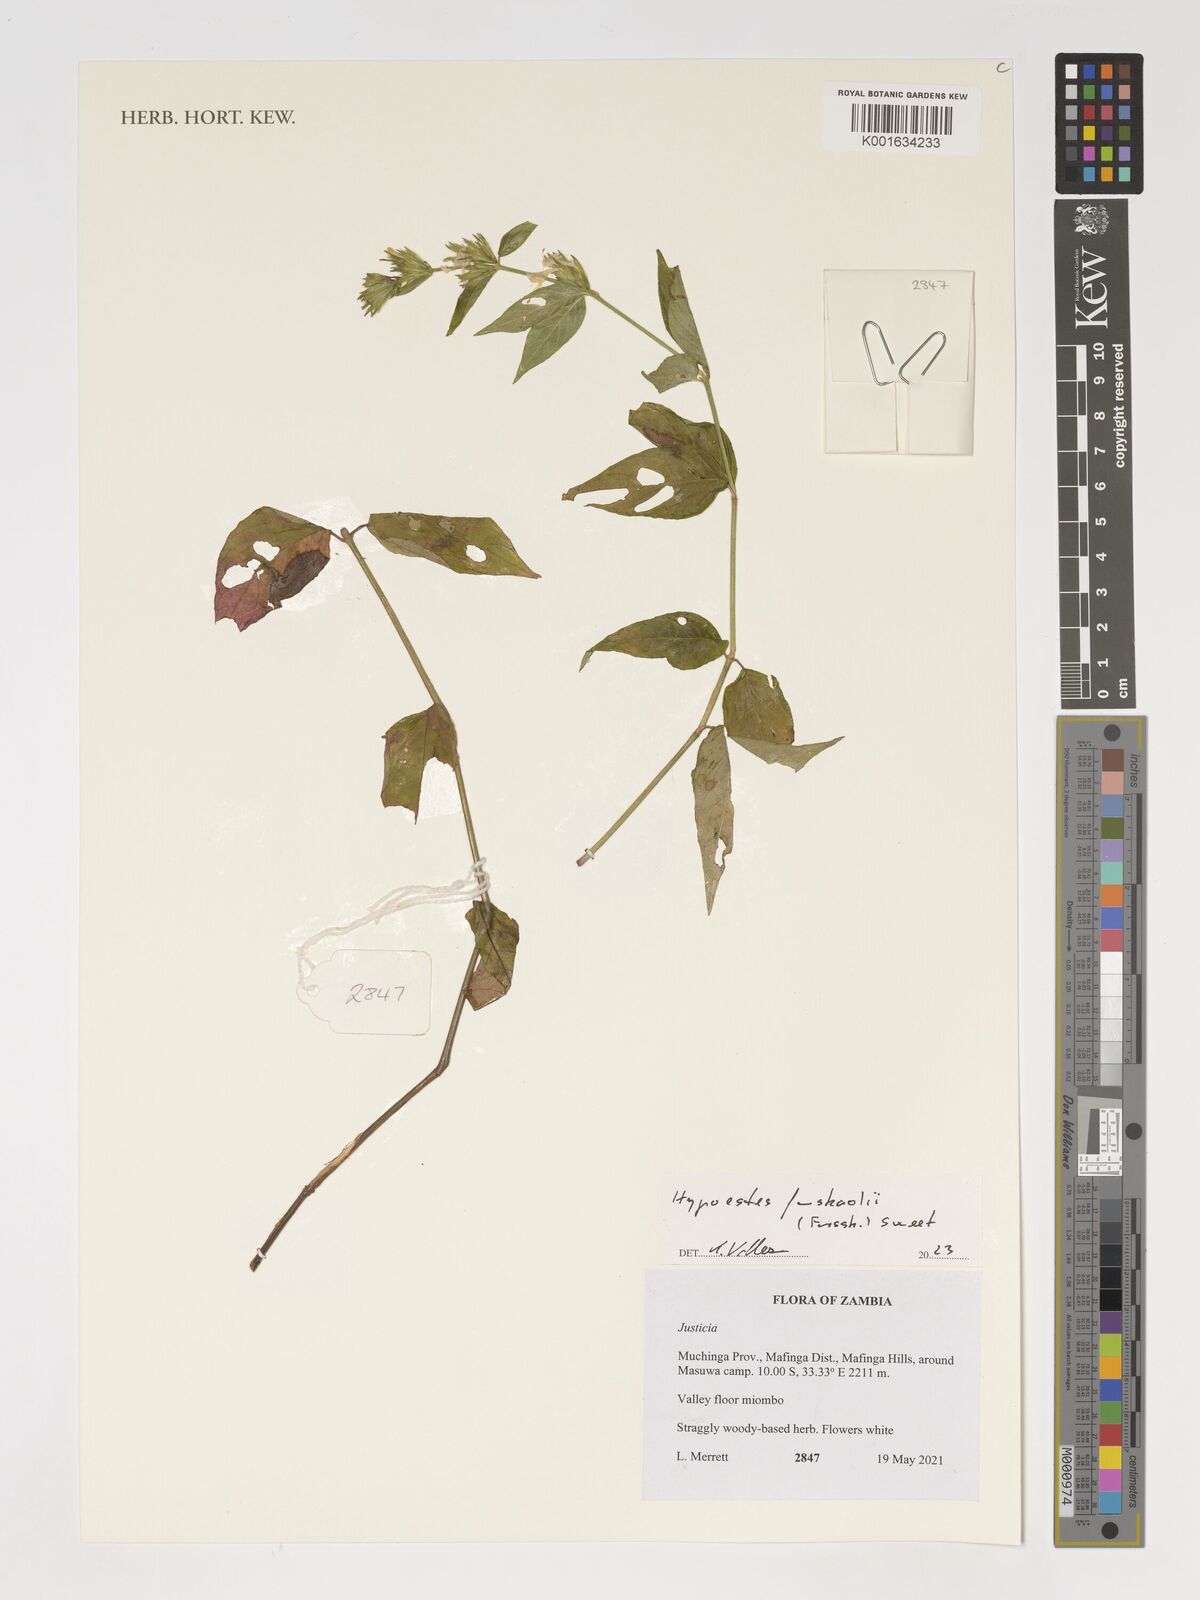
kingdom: Plantae
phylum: Tracheophyta
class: Magnoliopsida
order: Lamiales
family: Acanthaceae
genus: Hypoestes
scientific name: Hypoestes forskaolii
